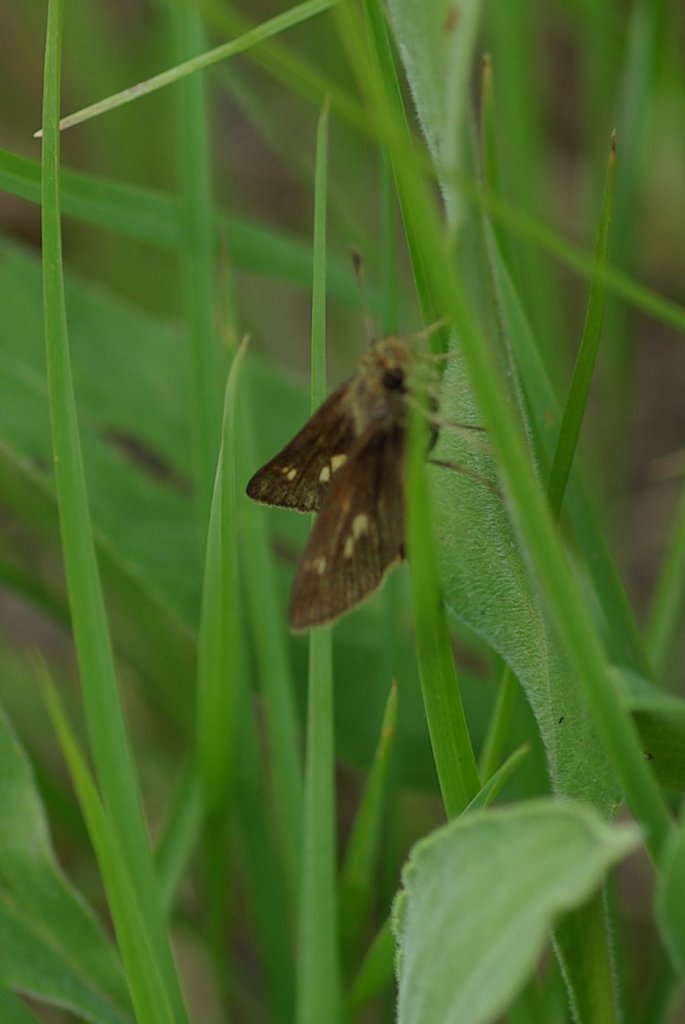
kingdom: Animalia
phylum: Arthropoda
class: Insecta
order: Lepidoptera
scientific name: Lepidoptera
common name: Butterflies
